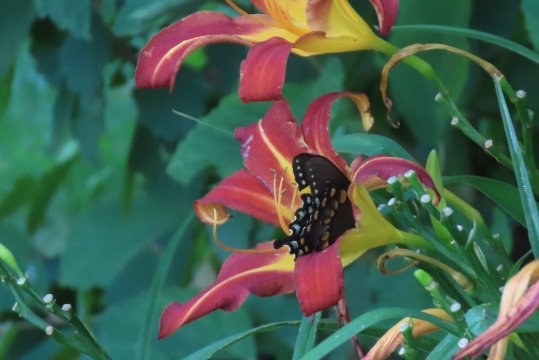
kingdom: Animalia
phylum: Arthropoda
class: Insecta
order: Lepidoptera
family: Papilionidae
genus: Pterourus
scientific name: Pterourus troilus
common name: Spicebush Swallowtail
